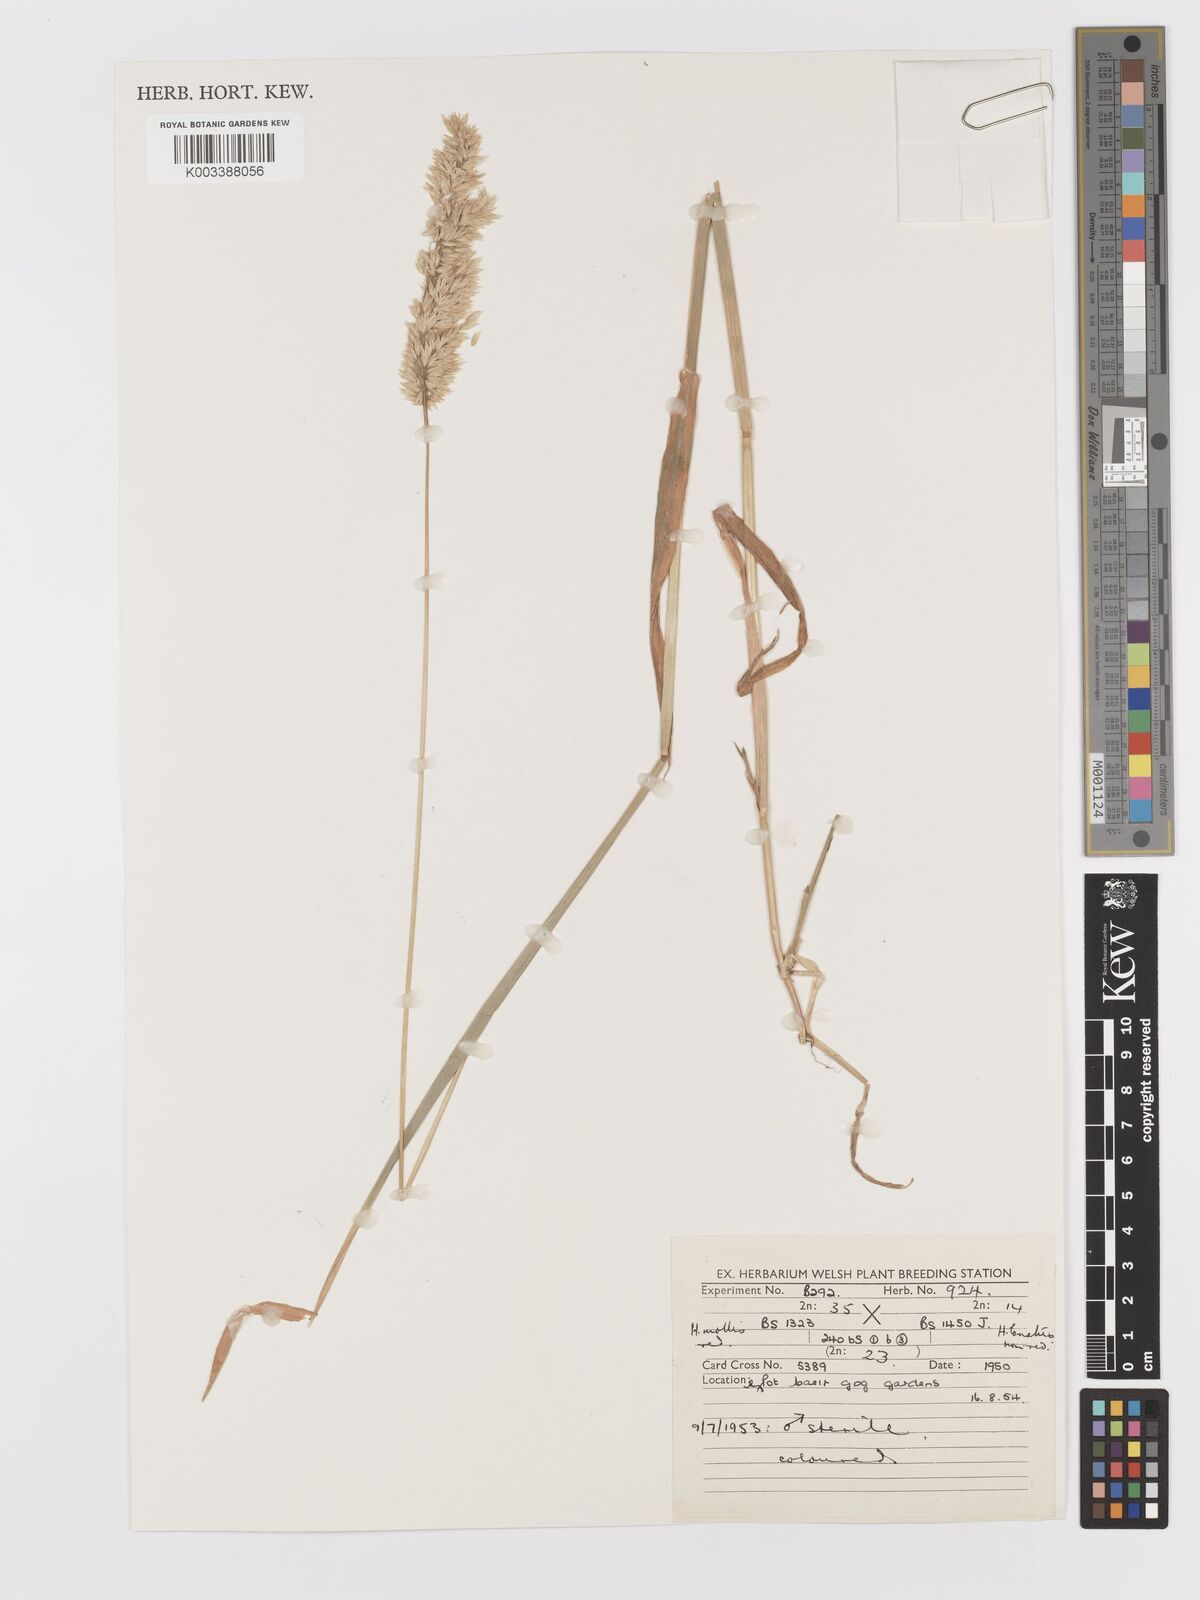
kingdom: Plantae
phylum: Tracheophyta
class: Liliopsida
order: Poales
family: Poaceae
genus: Holcus
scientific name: Holcus lanatus
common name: Yorkshire-fog
